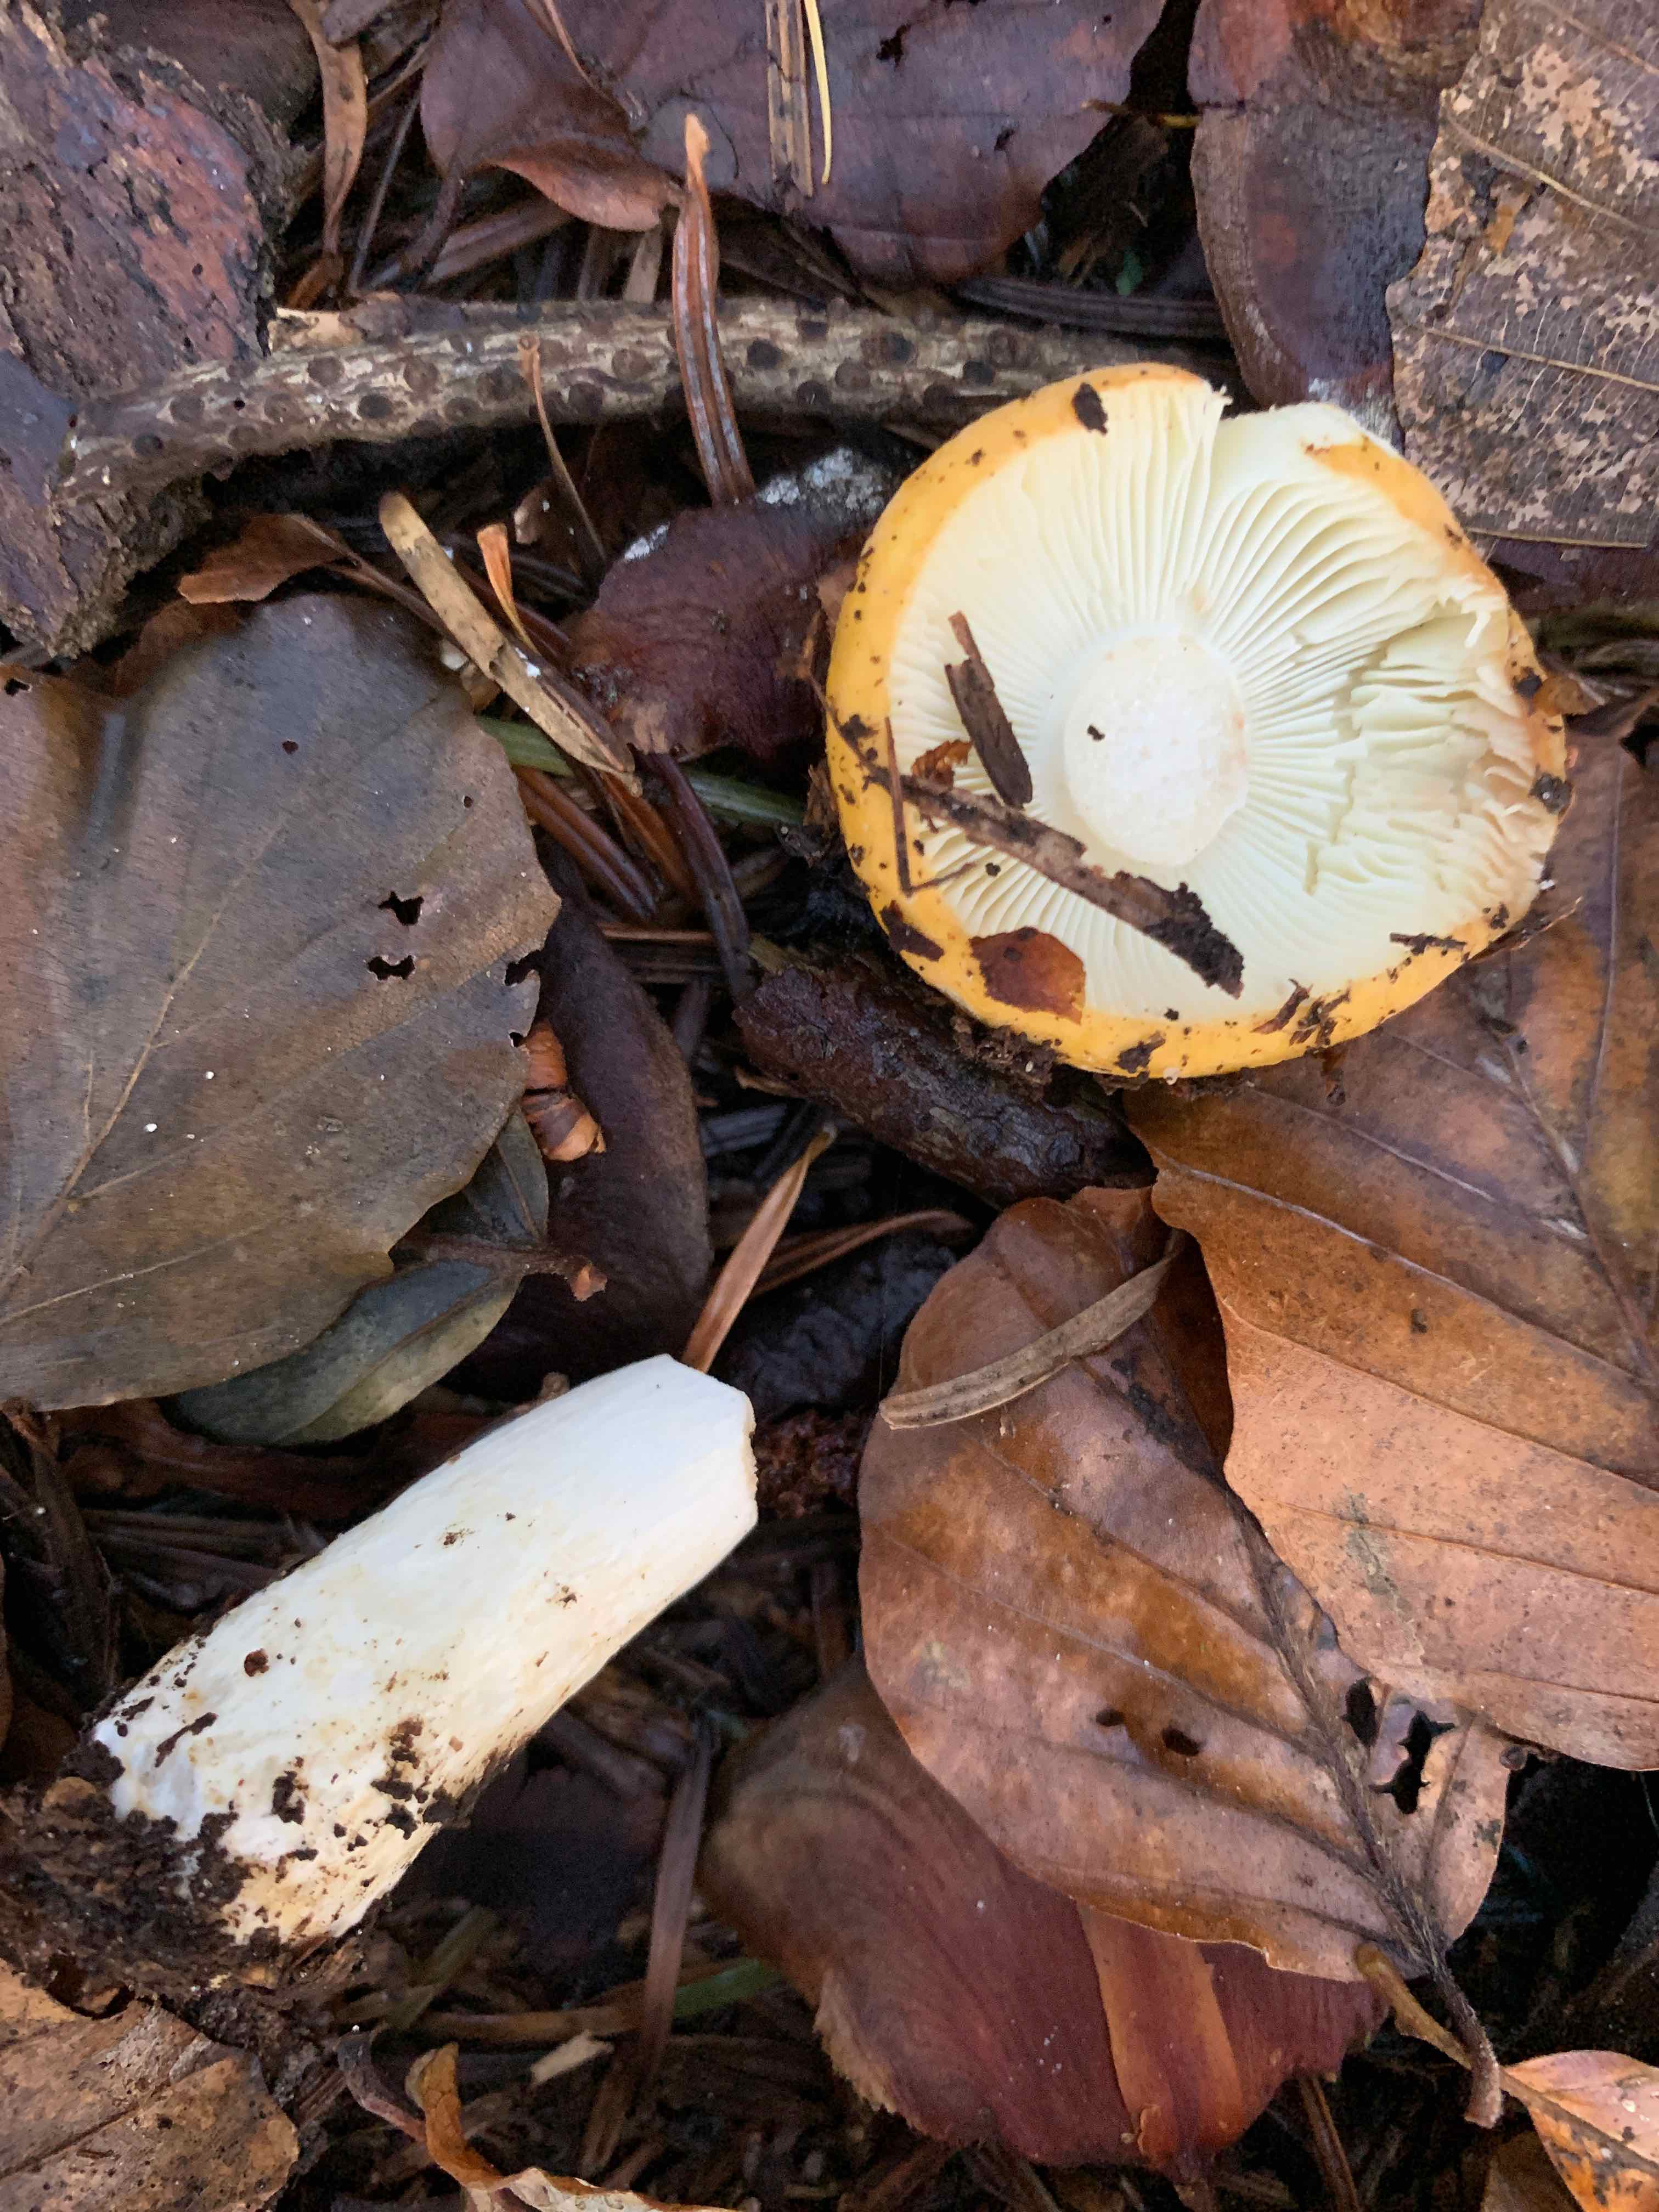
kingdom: Fungi
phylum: Basidiomycota
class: Agaricomycetes
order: Russulales
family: Russulaceae
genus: Russula
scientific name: Russula ochroleuca
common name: okkergul skørhat
